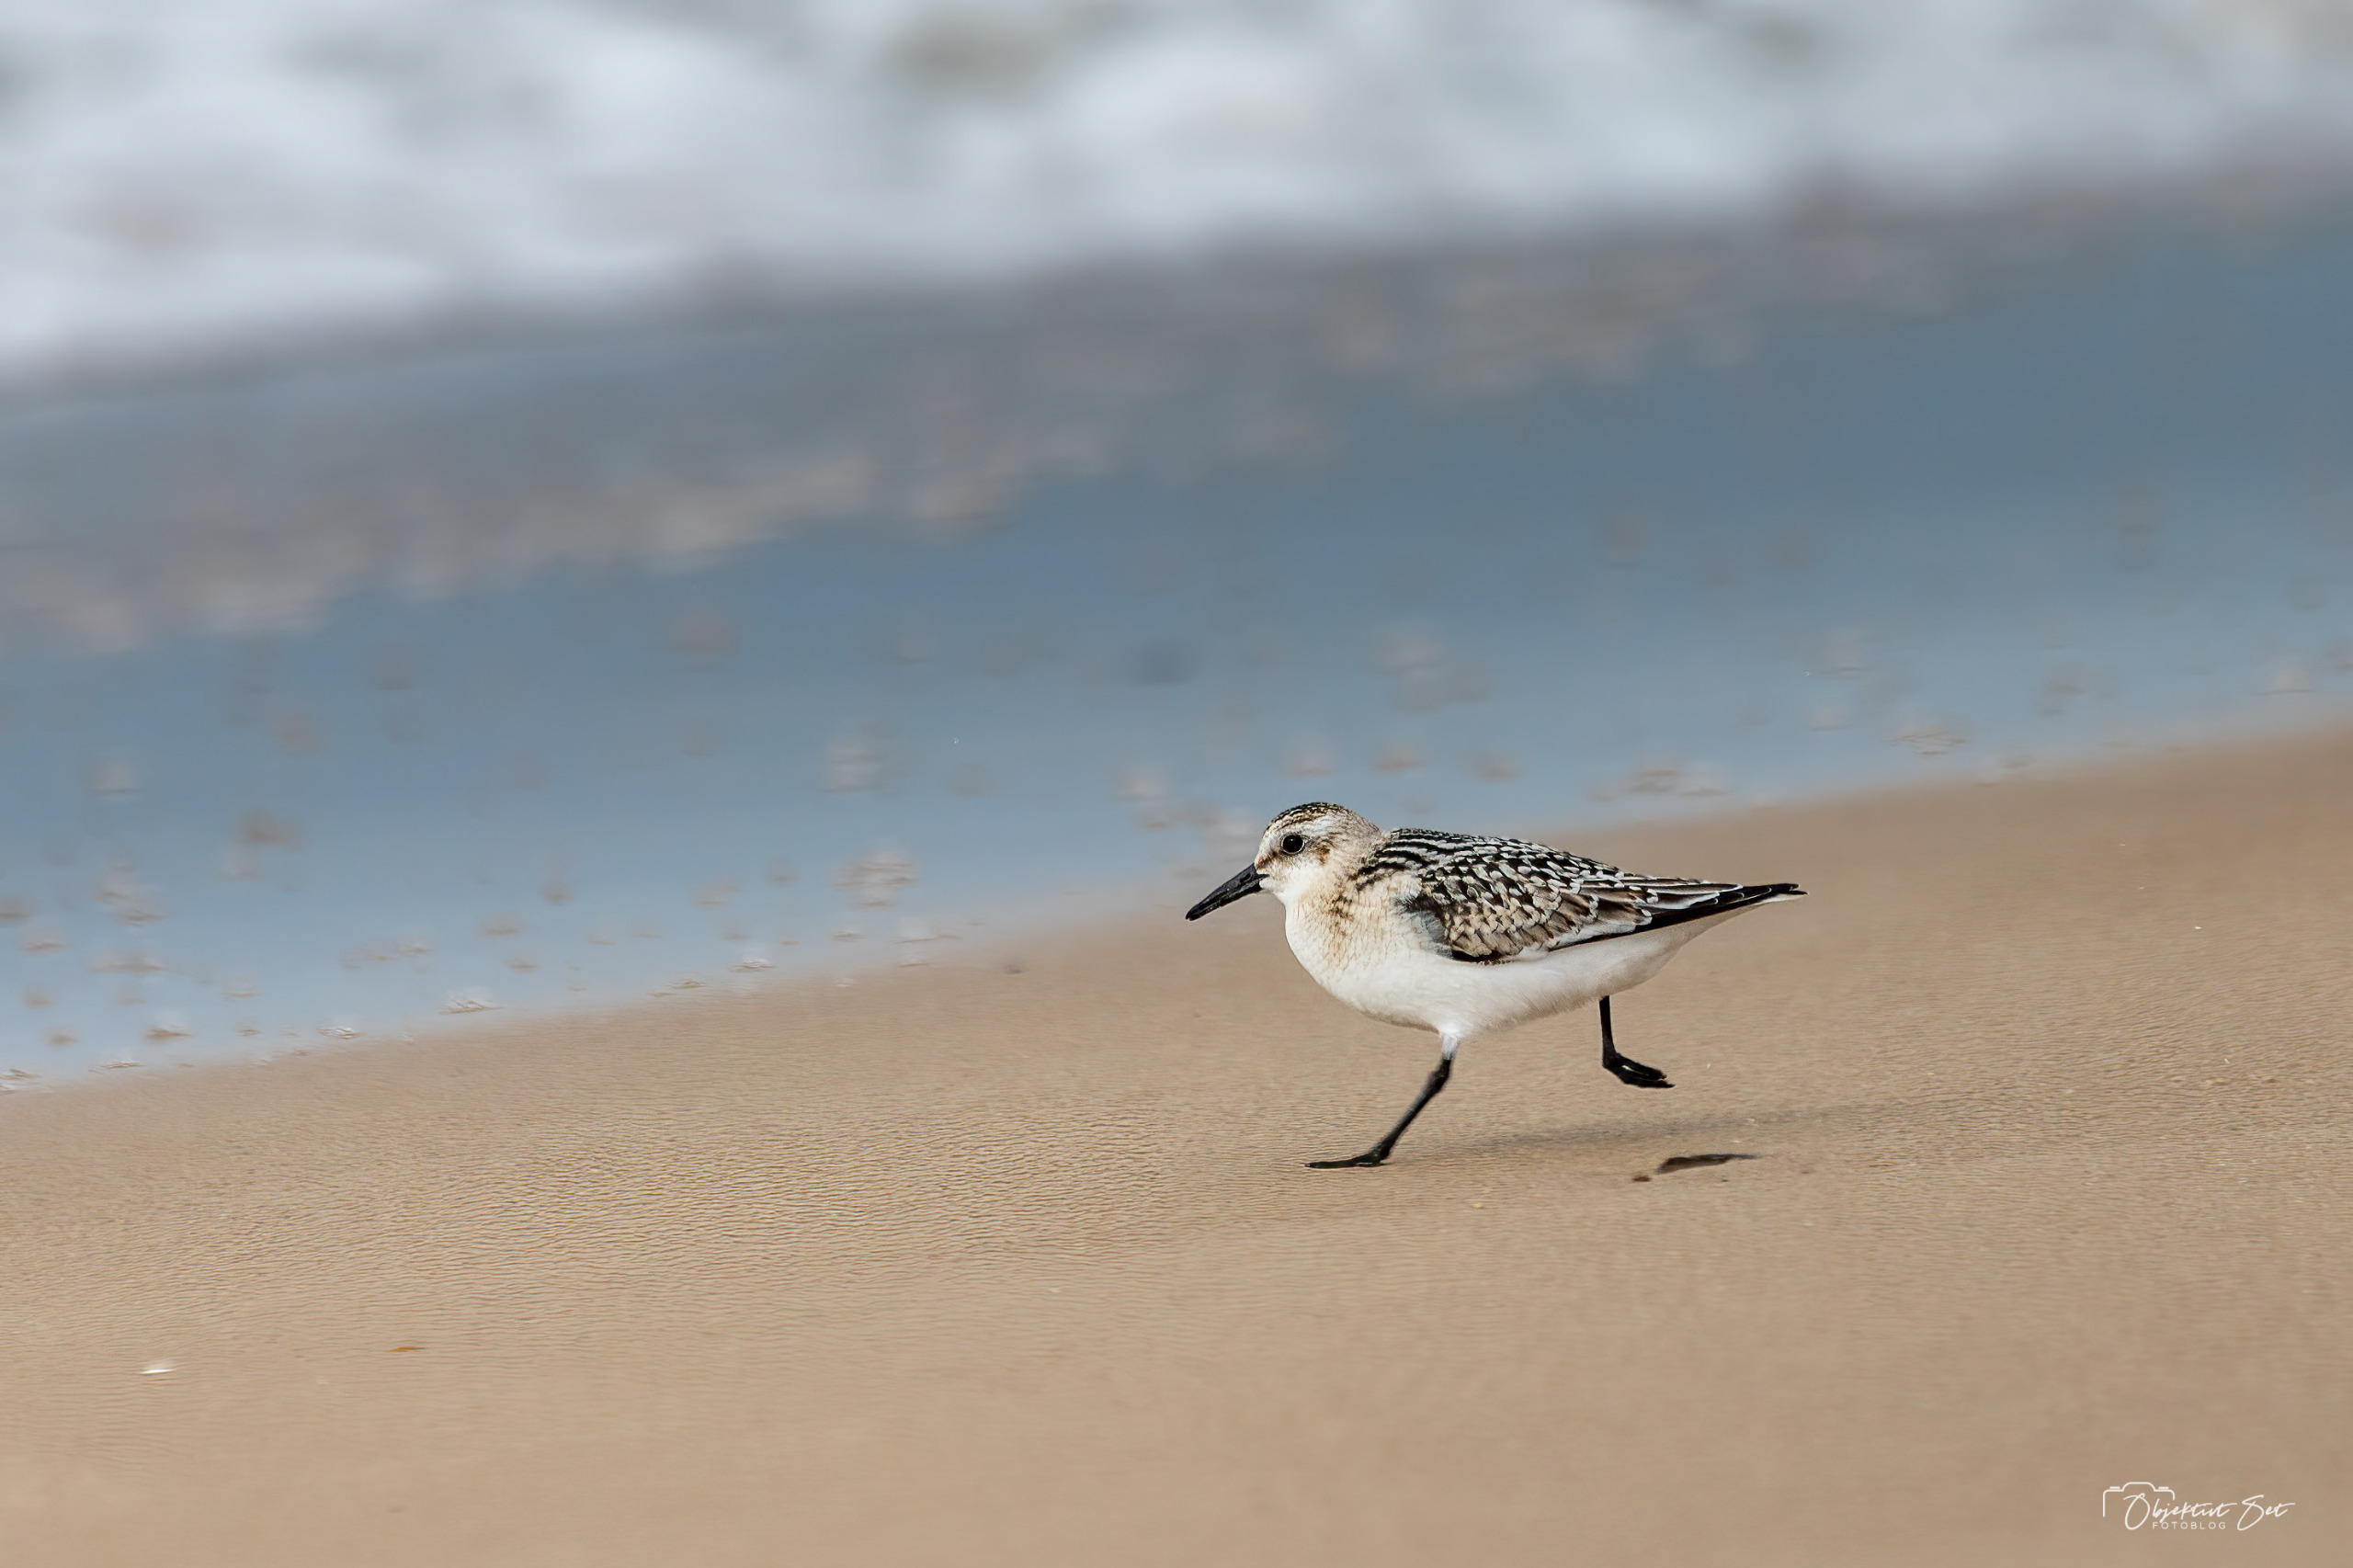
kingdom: Animalia
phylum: Chordata
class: Aves
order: Charadriiformes
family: Scolopacidae
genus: Calidris
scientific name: Calidris alba
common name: Sandløber
